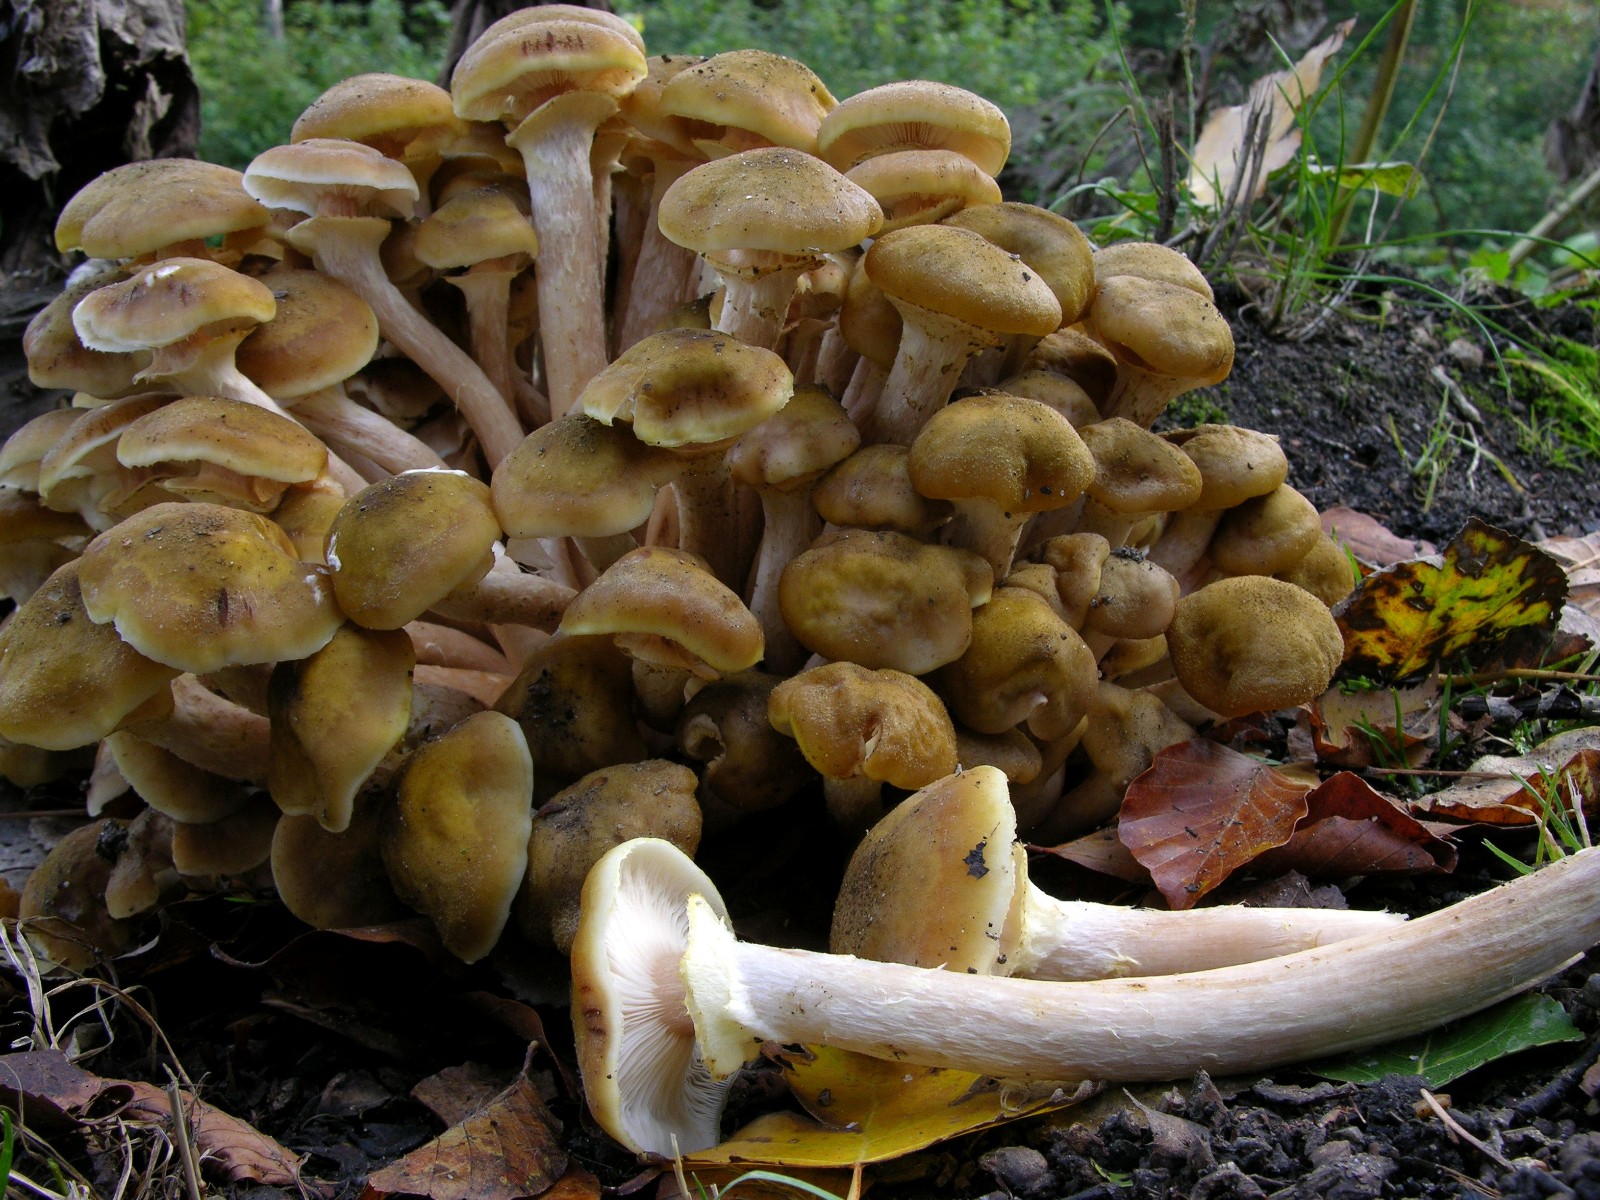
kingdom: Fungi
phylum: Basidiomycota
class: Agaricomycetes
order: Agaricales
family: Physalacriaceae
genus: Armillaria
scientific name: Armillaria mellea
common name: ægte honningsvamp
